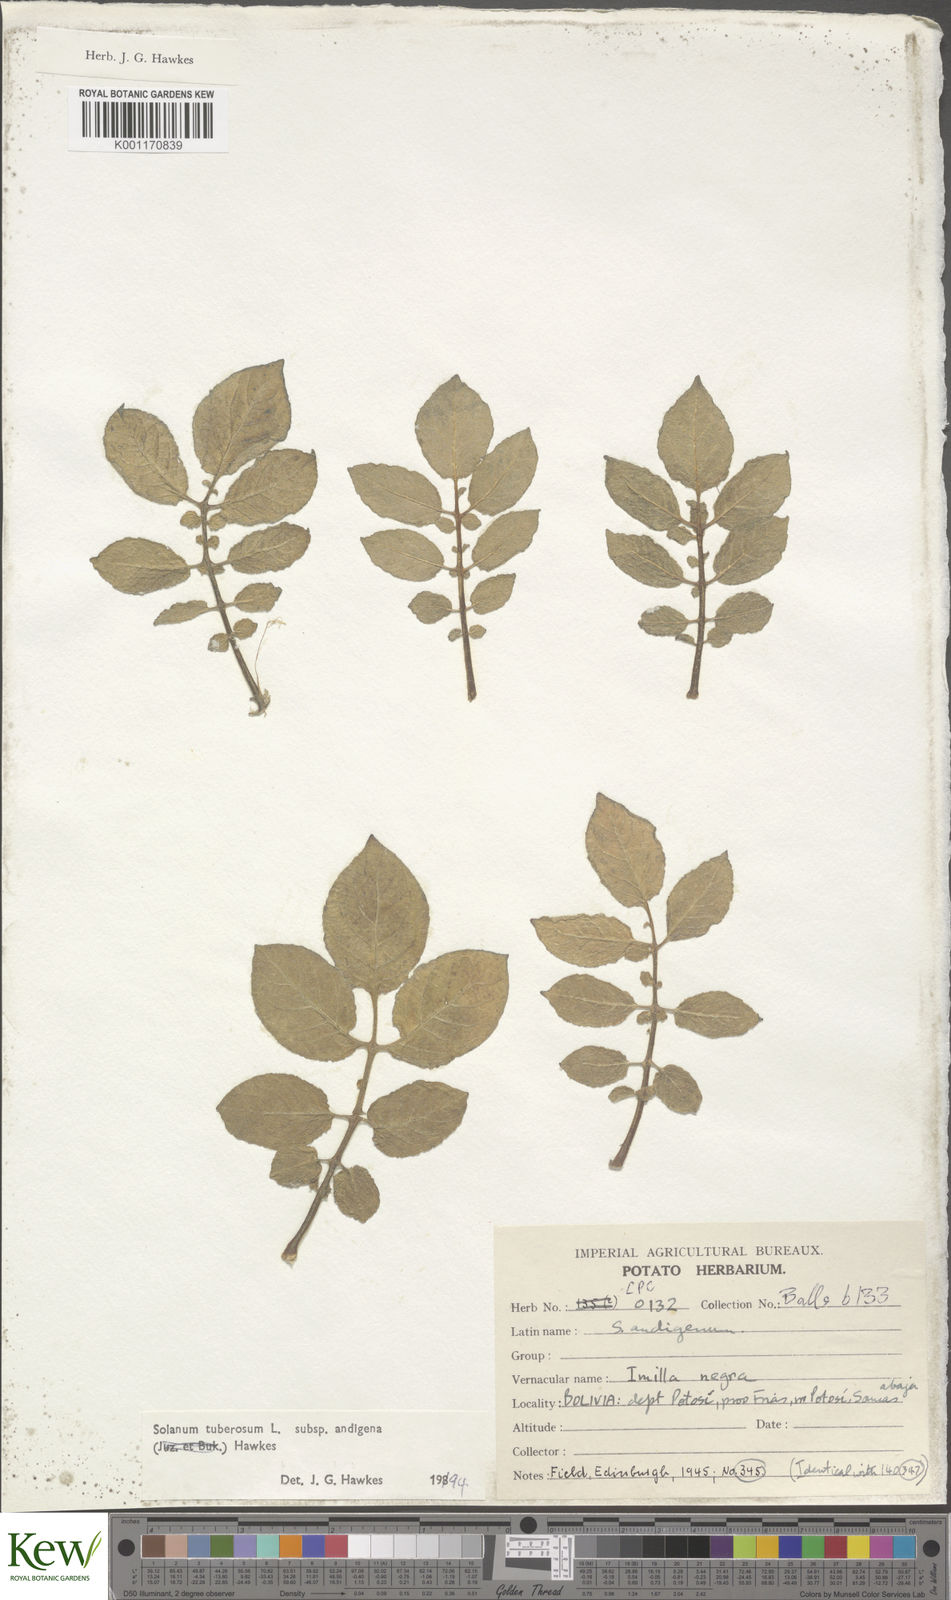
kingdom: Plantae
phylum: Tracheophyta
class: Magnoliopsida
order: Solanales
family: Solanaceae
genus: Solanum
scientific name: Solanum tuberosum
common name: Potato
